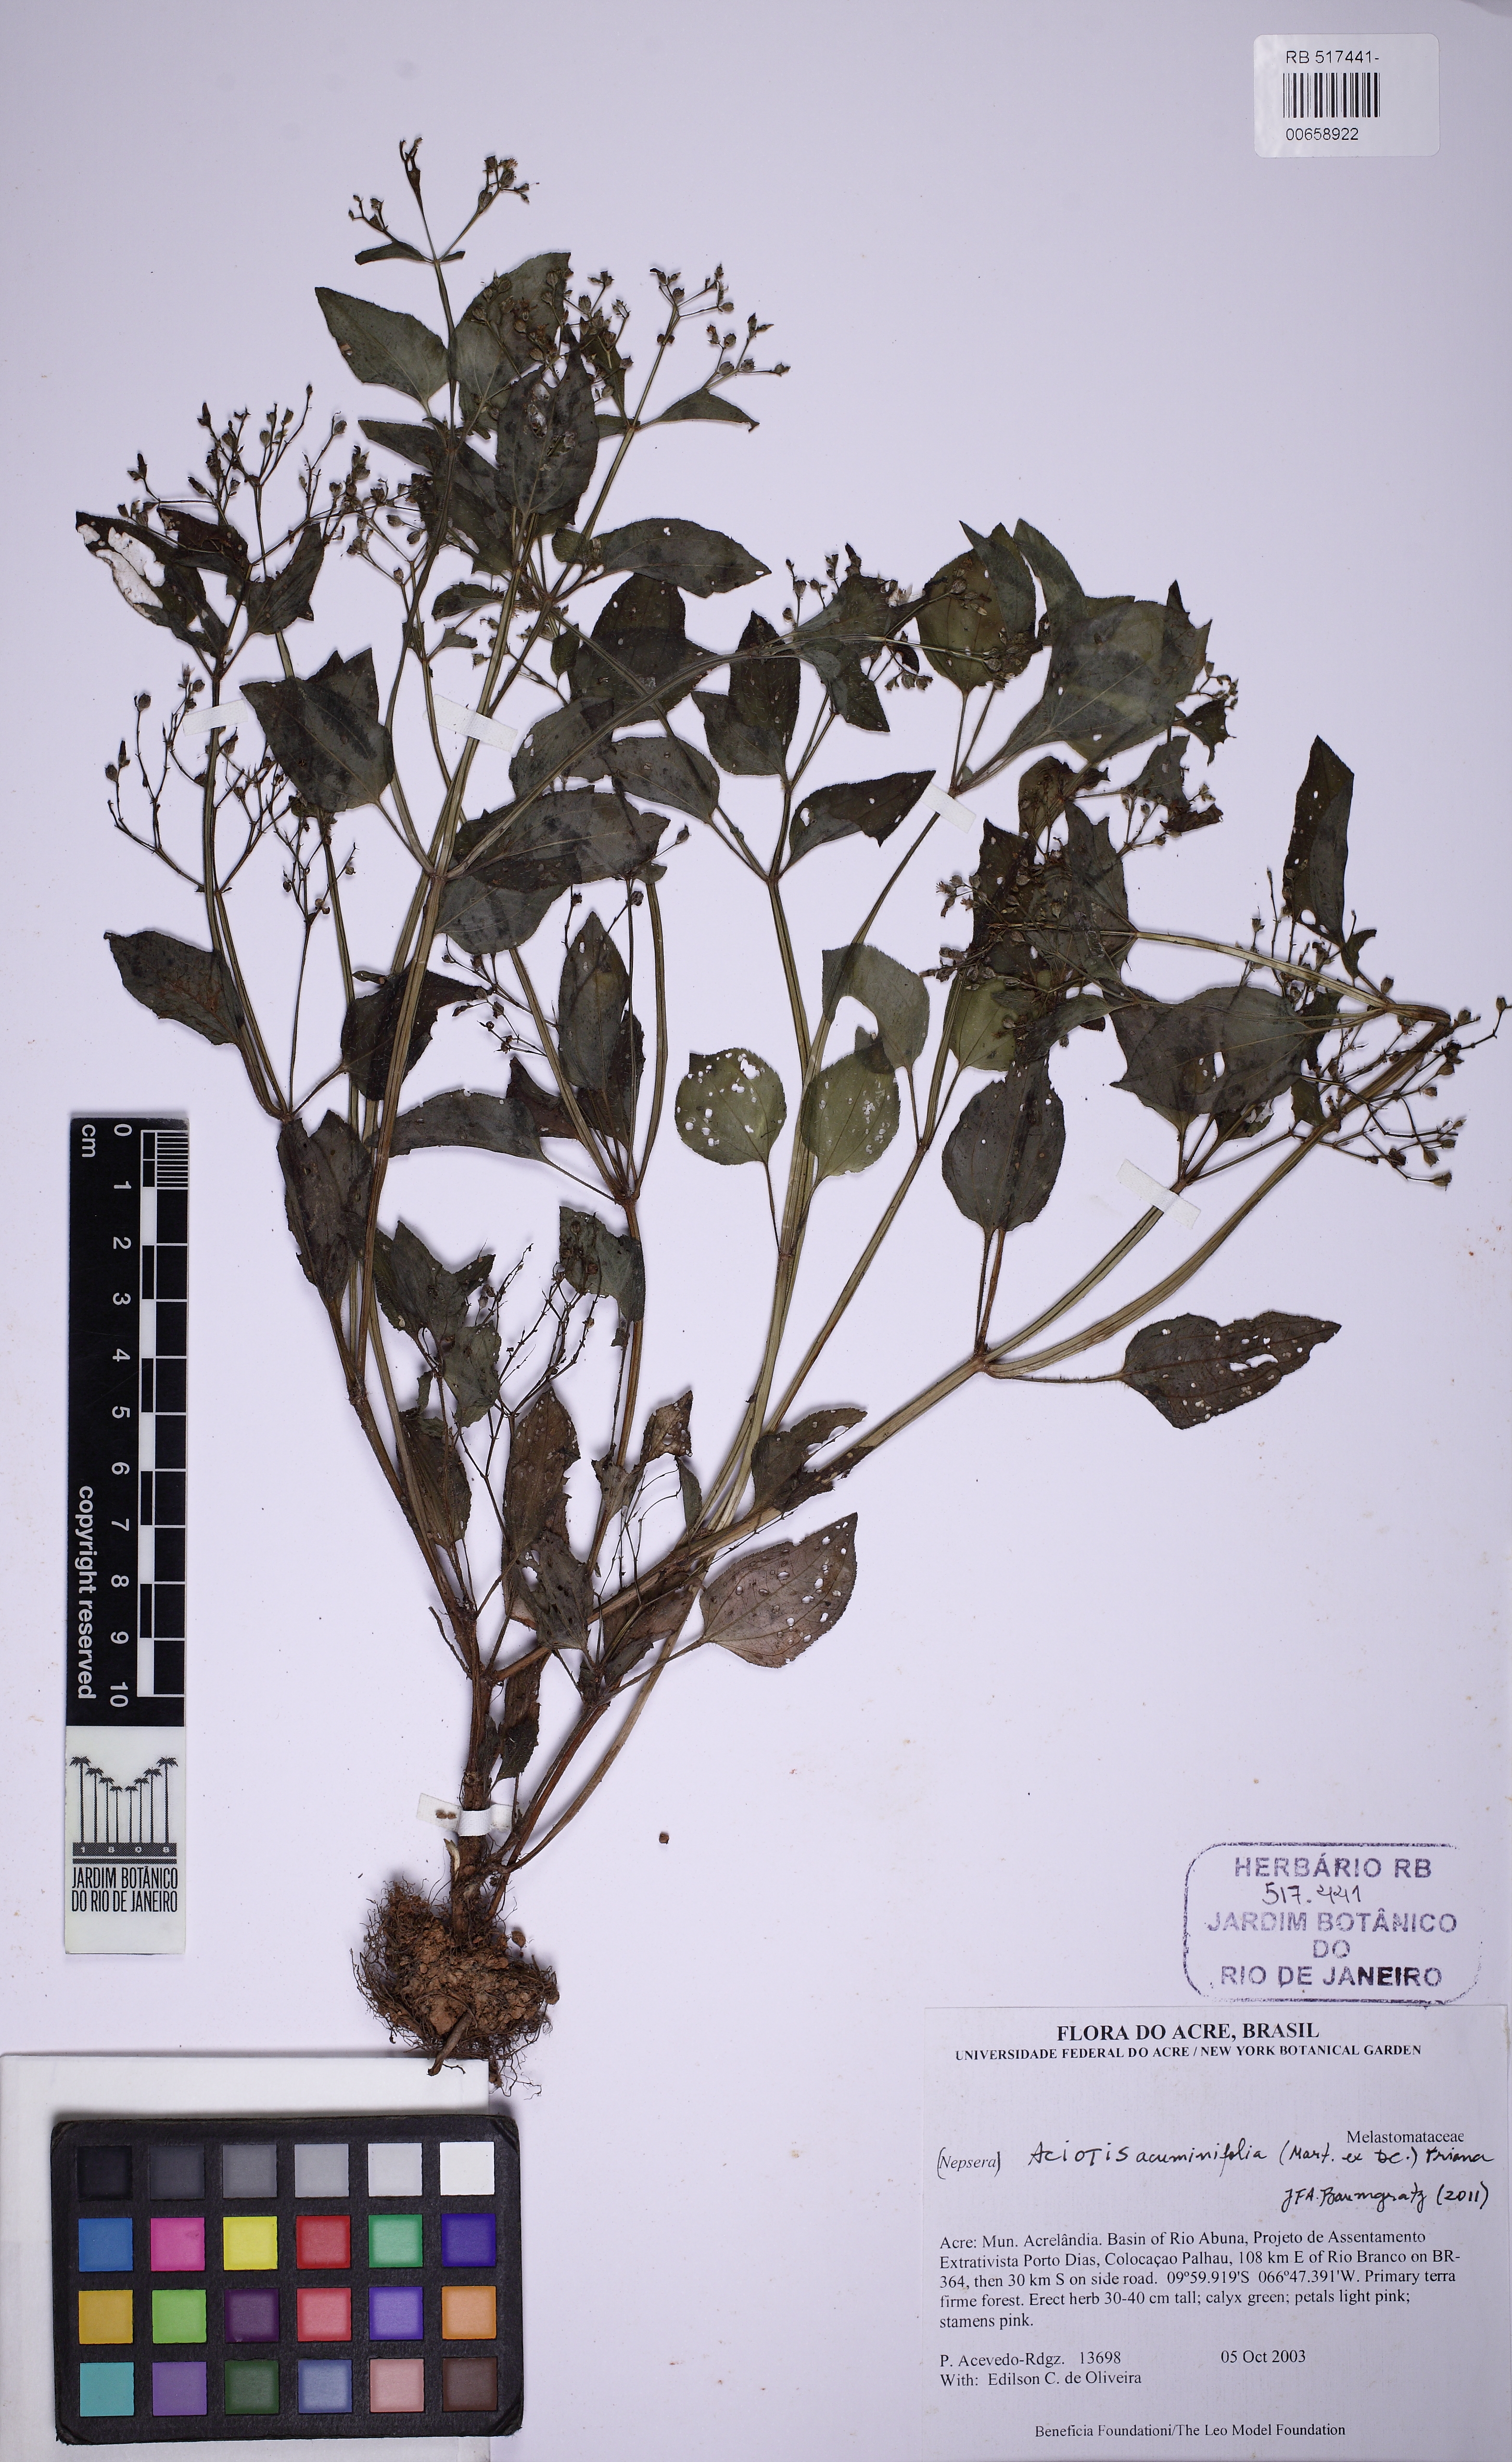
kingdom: Plantae
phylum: Tracheophyta
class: Magnoliopsida
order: Myrtales
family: Melastomataceae
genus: Aciotis
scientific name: Aciotis acuminifolia
